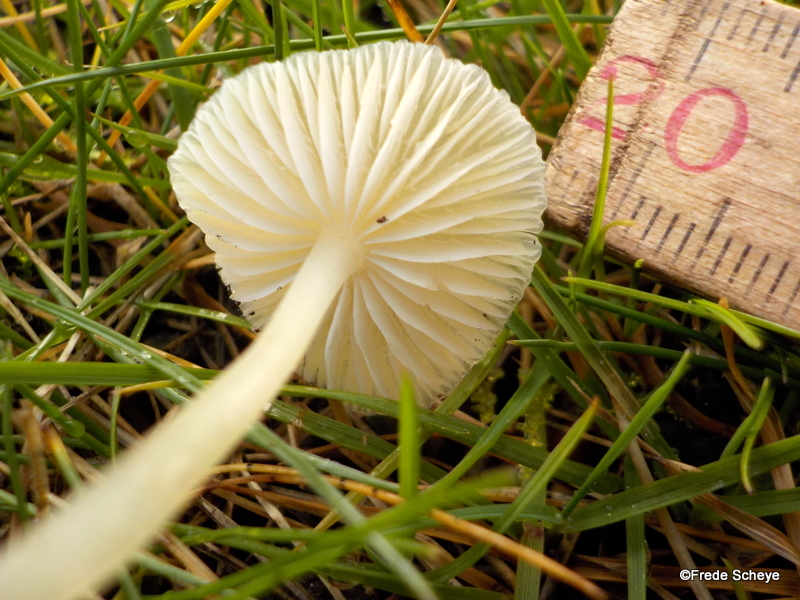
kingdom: Fungi
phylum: Basidiomycota
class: Agaricomycetes
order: Agaricales
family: Mycenaceae
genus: Atheniella
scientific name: Atheniella flavoalba
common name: gulhvid huesvamp
